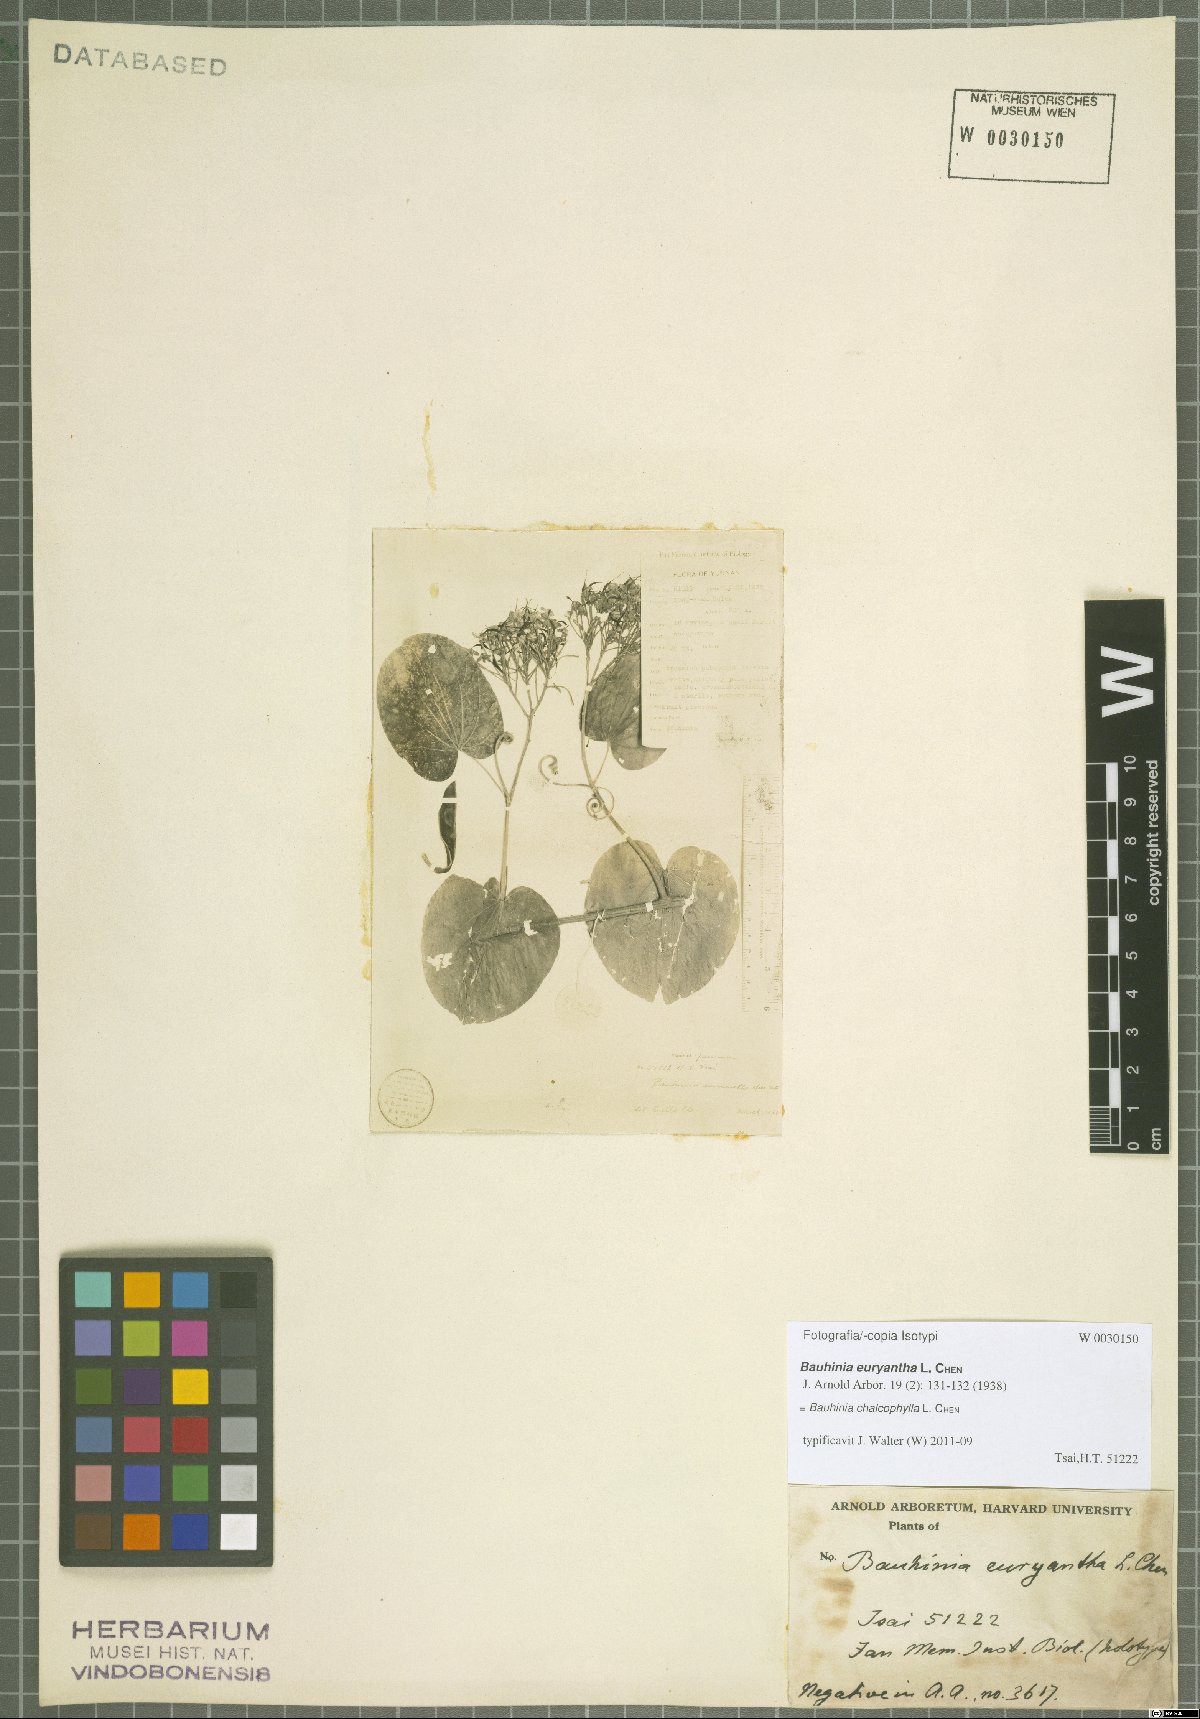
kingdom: Plantae
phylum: Tracheophyta
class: Magnoliopsida
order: Fabales
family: Fabaceae
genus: Bauhinia
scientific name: Bauhinia chalcophylla
